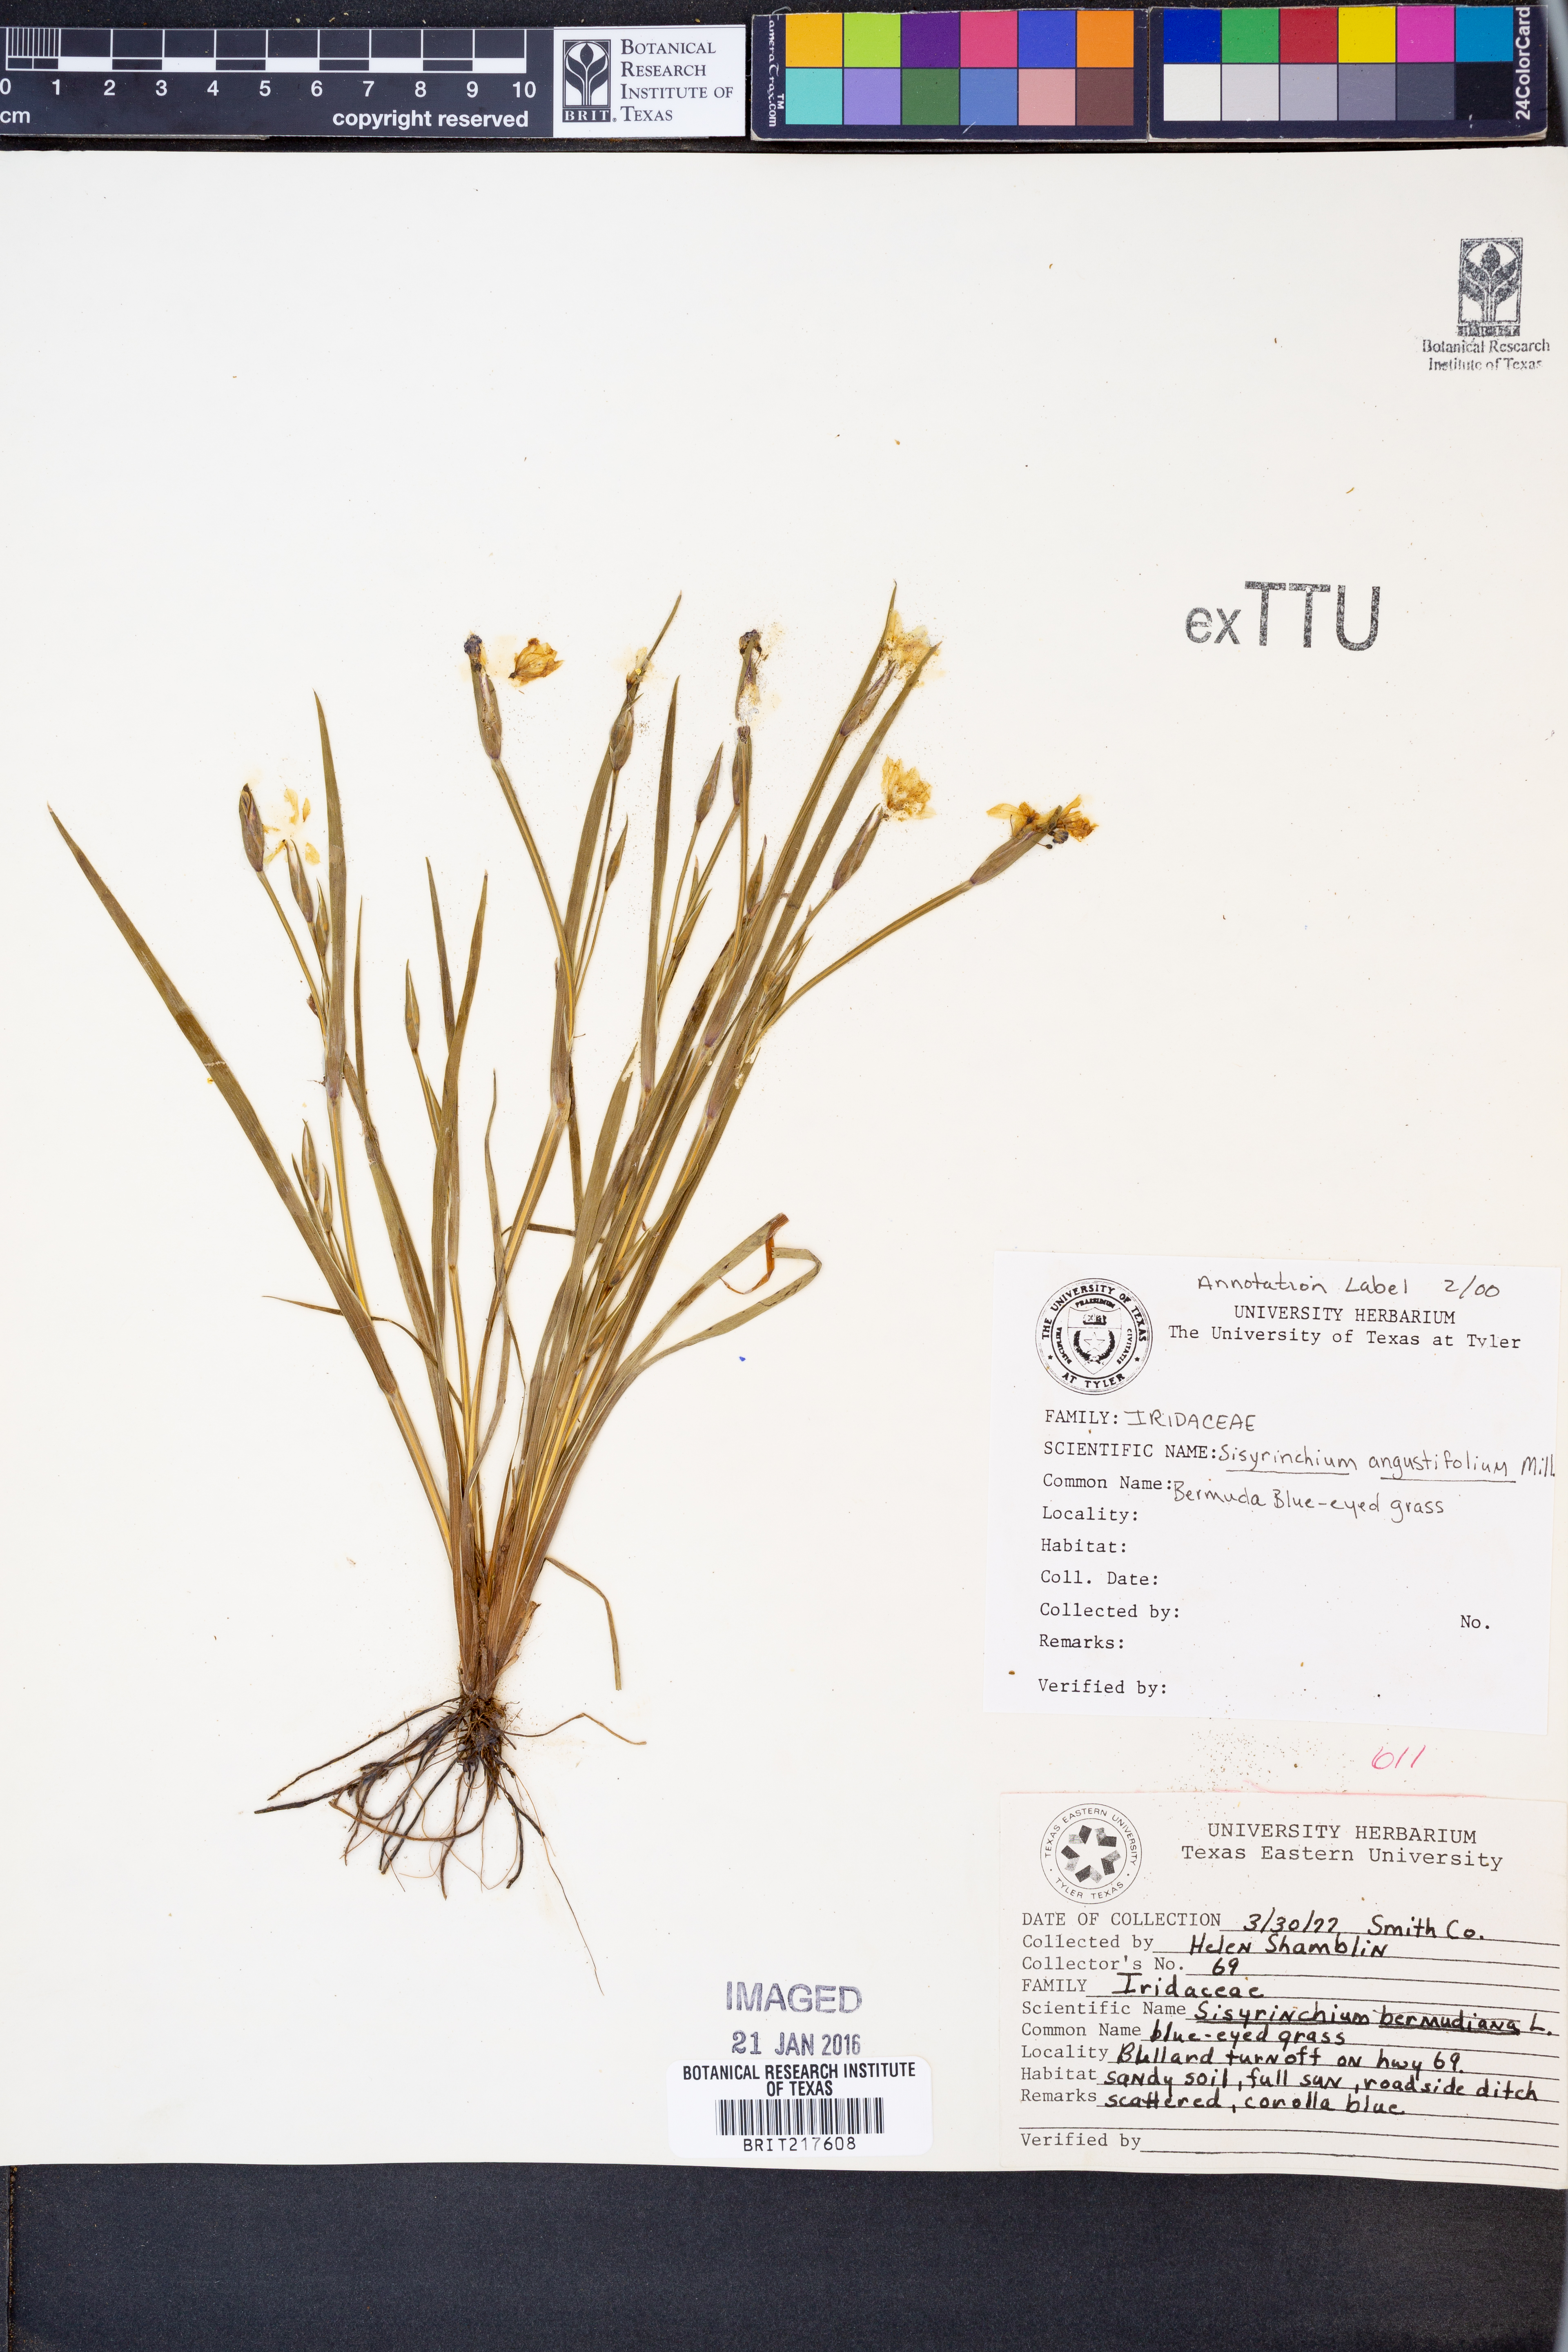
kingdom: Plantae
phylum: Tracheophyta
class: Liliopsida
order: Asparagales
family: Iridaceae
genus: Sisyrinchium
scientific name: Sisyrinchium angustifolium
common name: Narrow-leaf blue-eyed-grass
